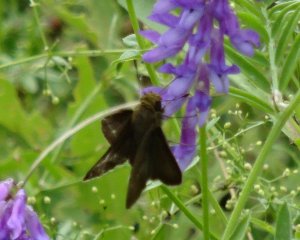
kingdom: Animalia
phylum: Arthropoda
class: Insecta
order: Lepidoptera
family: Hesperiidae
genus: Euphyes
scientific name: Euphyes vestris
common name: Dun Skipper
